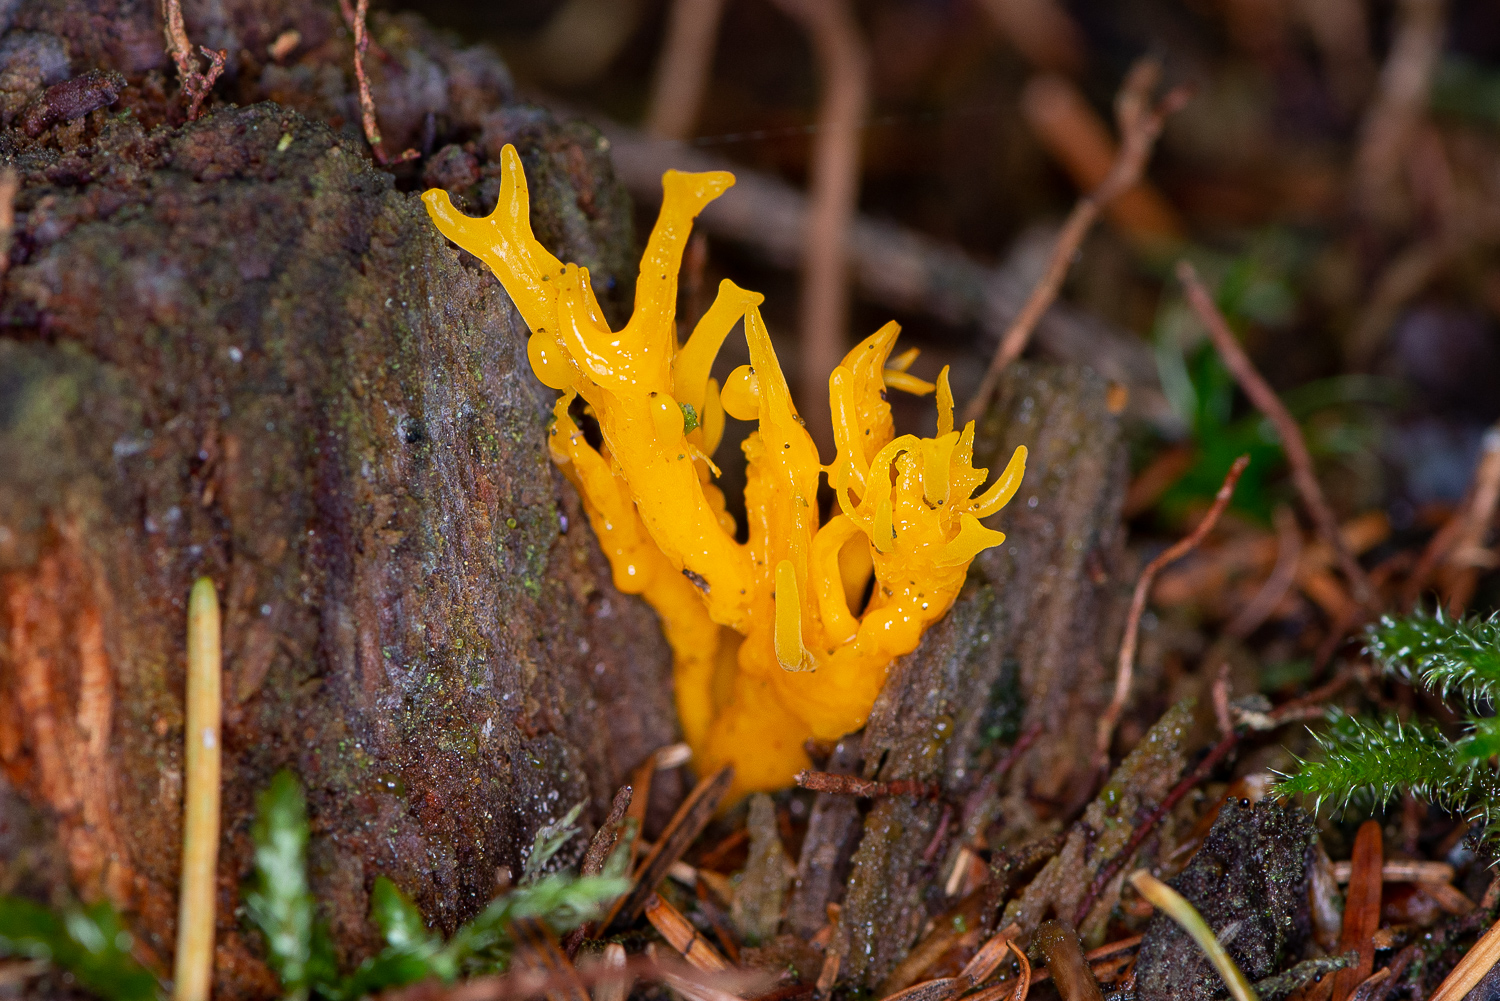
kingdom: Fungi
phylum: Basidiomycota
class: Dacrymycetes
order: Dacrymycetales
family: Dacrymycetaceae
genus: Calocera
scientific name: Calocera viscosa
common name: almindelig guldgaffel
